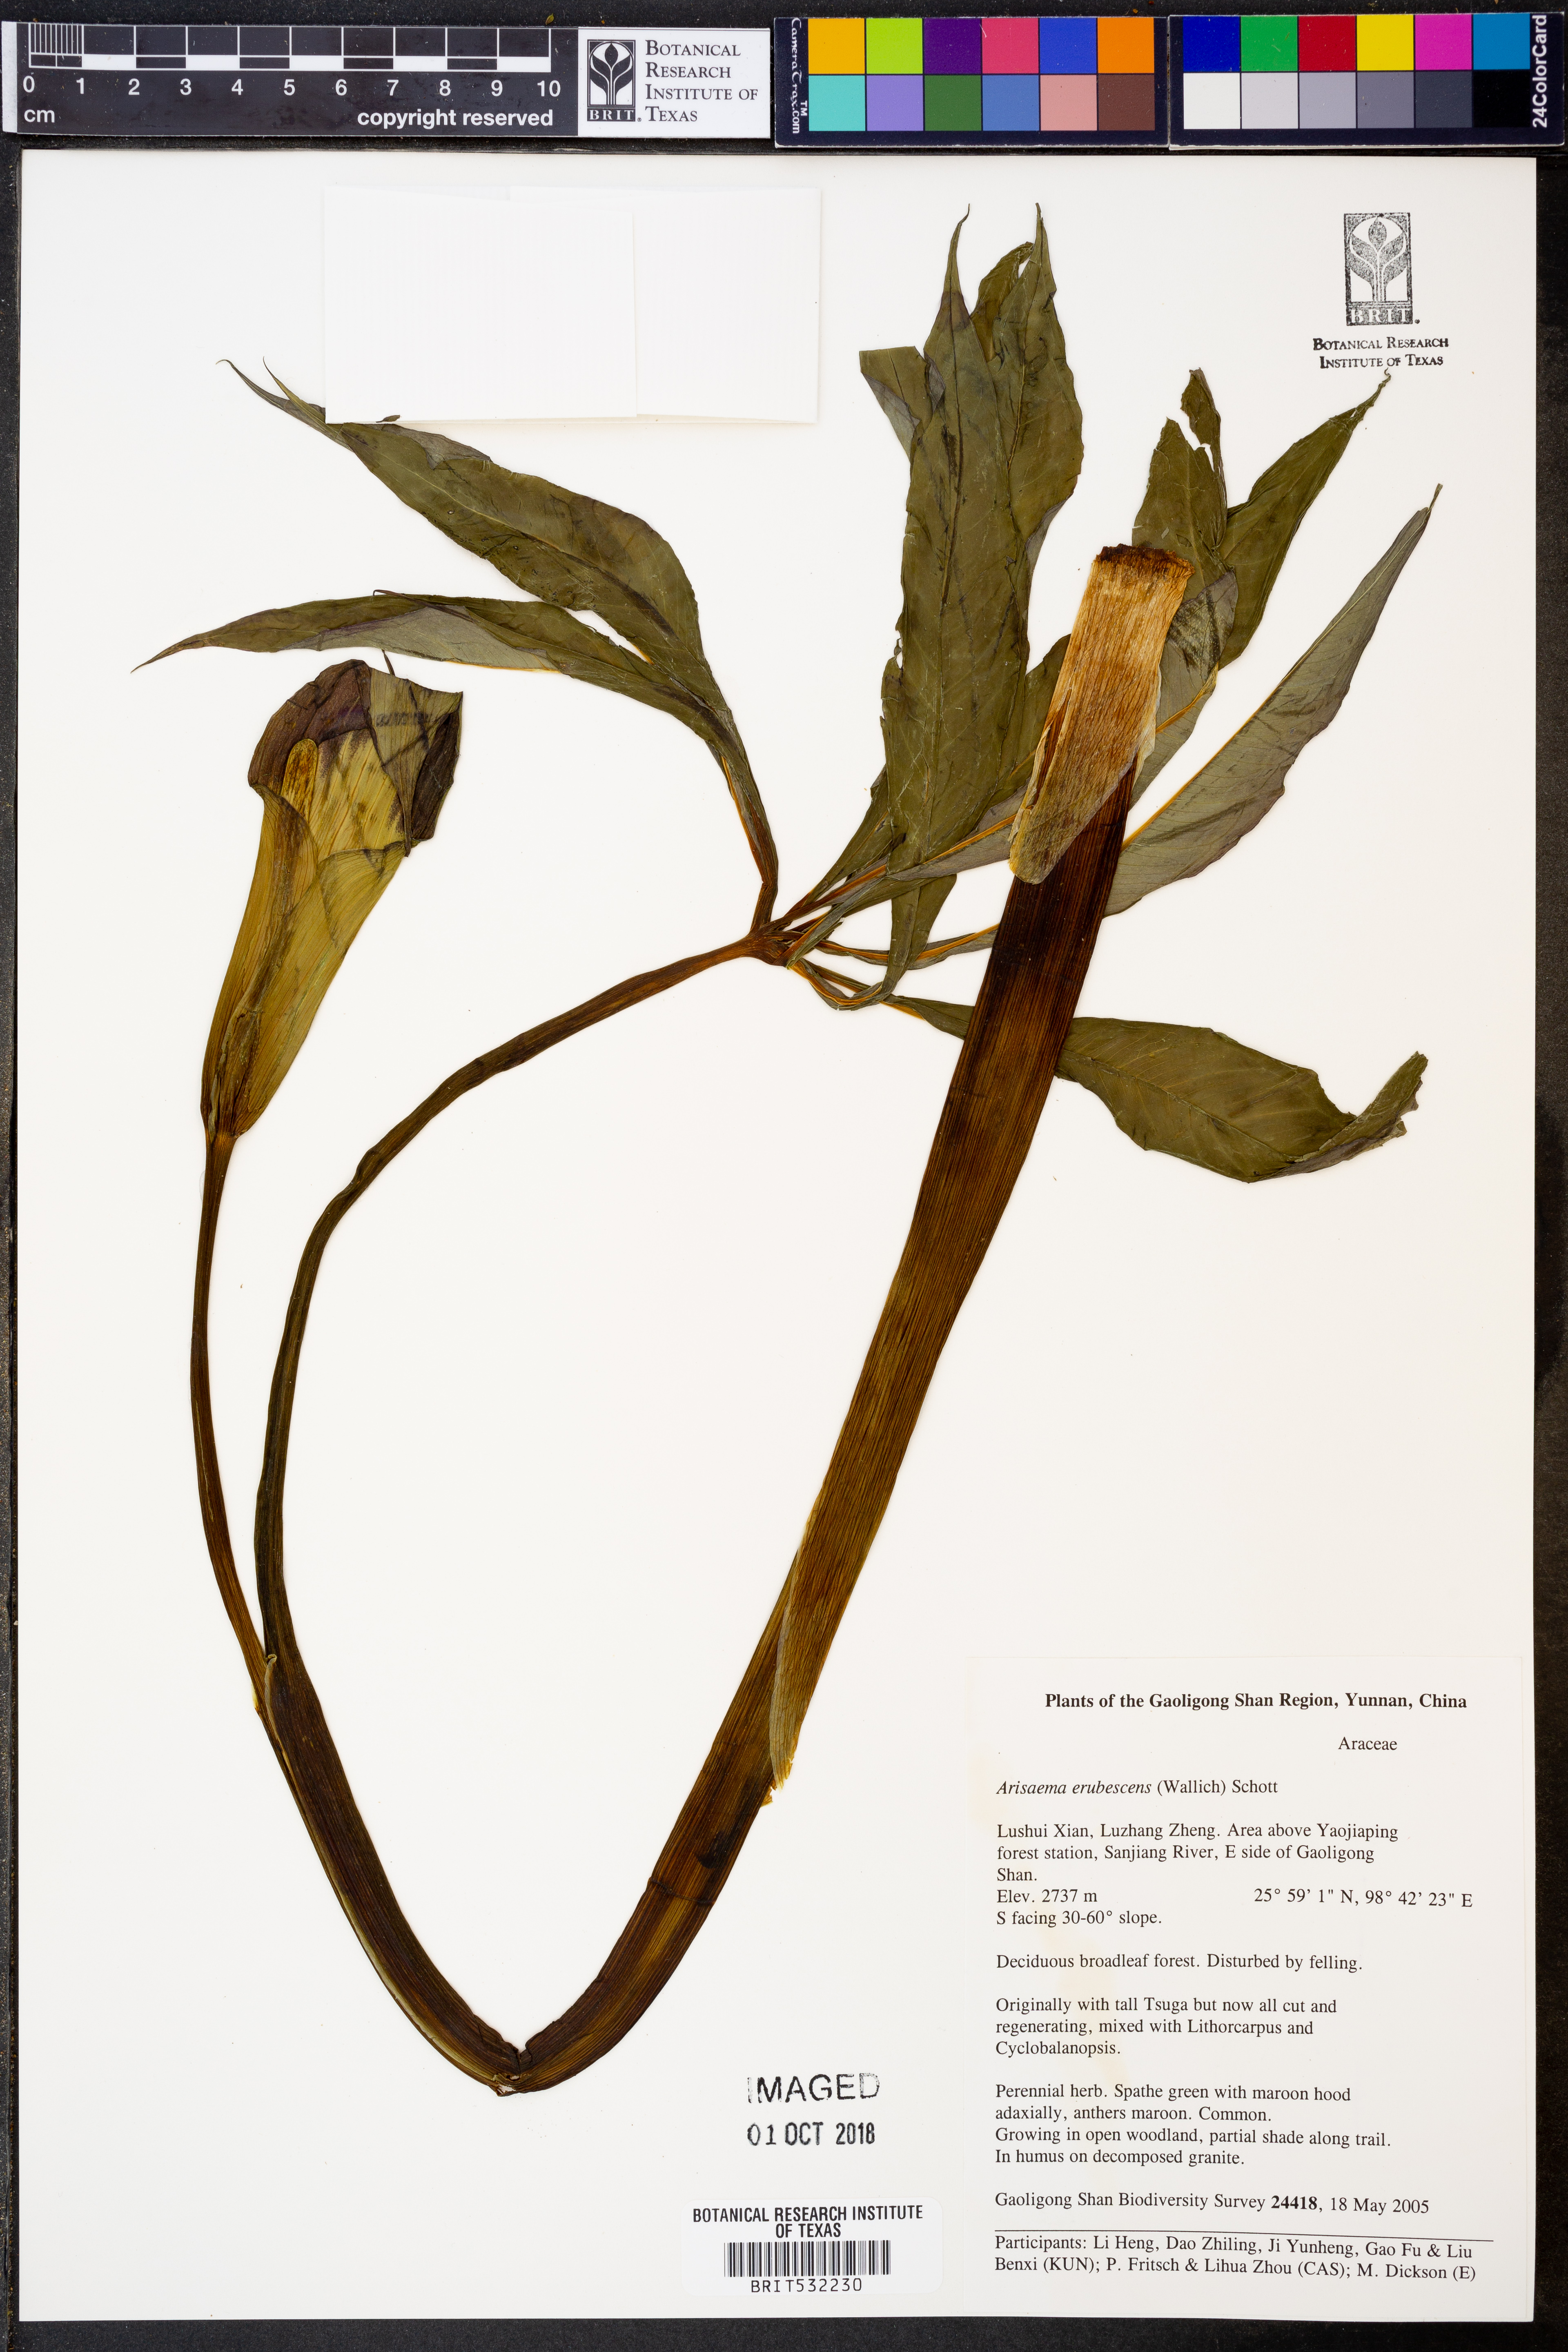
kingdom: Plantae
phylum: Tracheophyta
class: Liliopsida
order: Alismatales
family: Araceae
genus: Arisaema
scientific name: Arisaema erubescens
